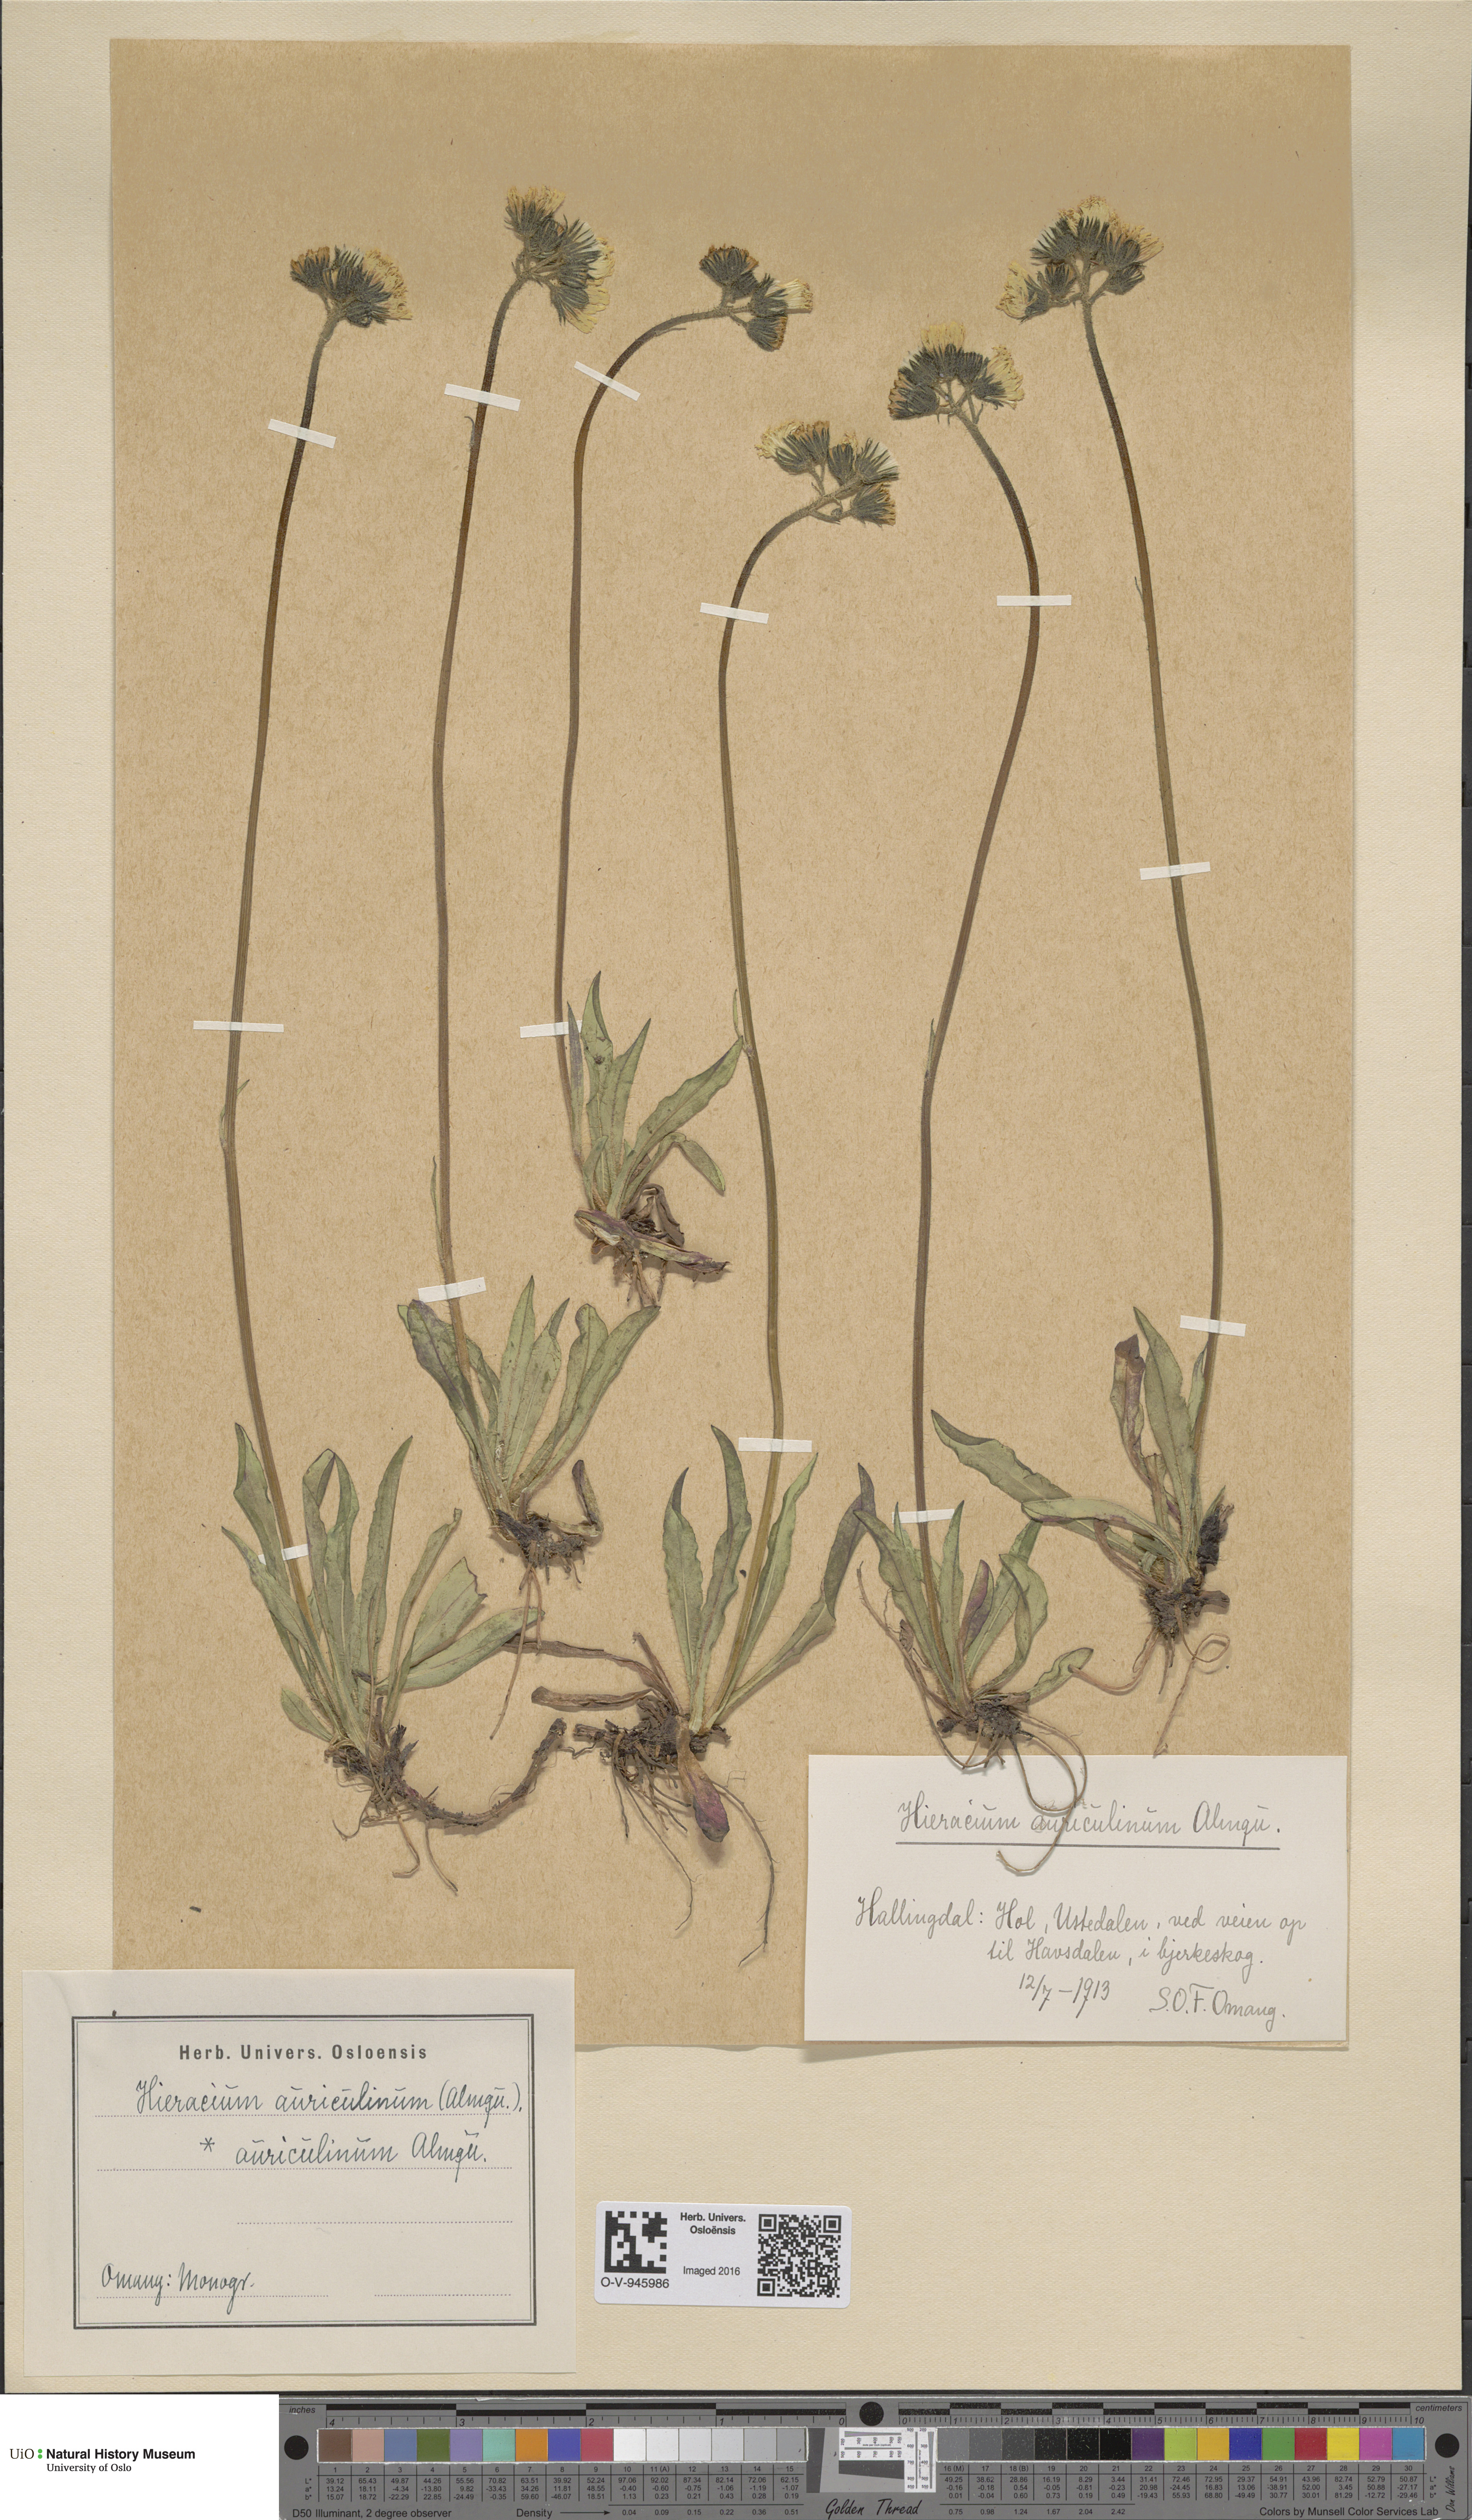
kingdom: Plantae
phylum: Tracheophyta
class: Magnoliopsida
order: Asterales
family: Asteraceae
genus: Pilosella
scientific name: Pilosella dubia
